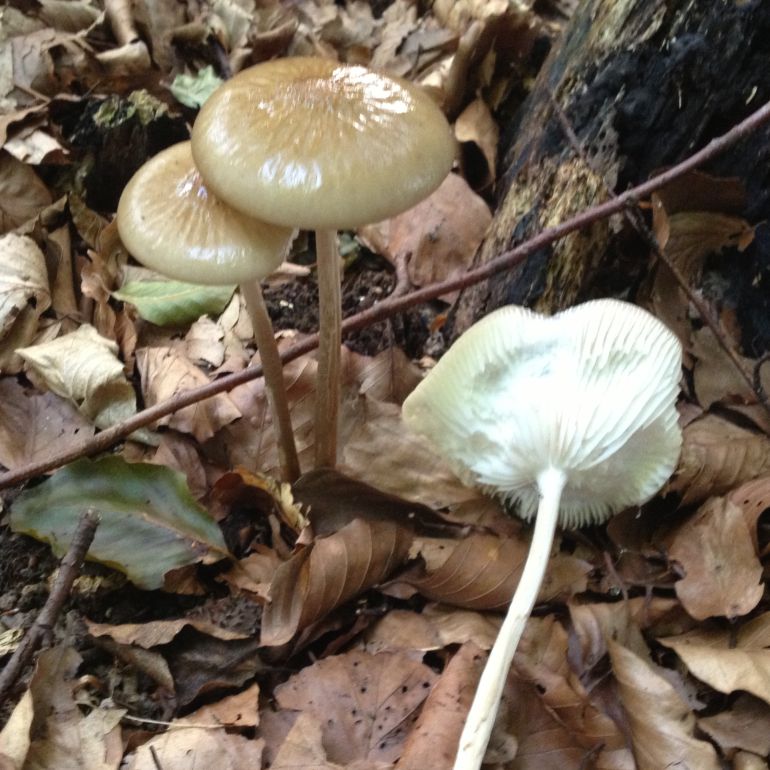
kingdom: Fungi
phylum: Basidiomycota
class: Agaricomycetes
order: Agaricales
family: Physalacriaceae
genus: Hymenopellis
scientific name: Hymenopellis radicata
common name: almindelig pælerodshat
